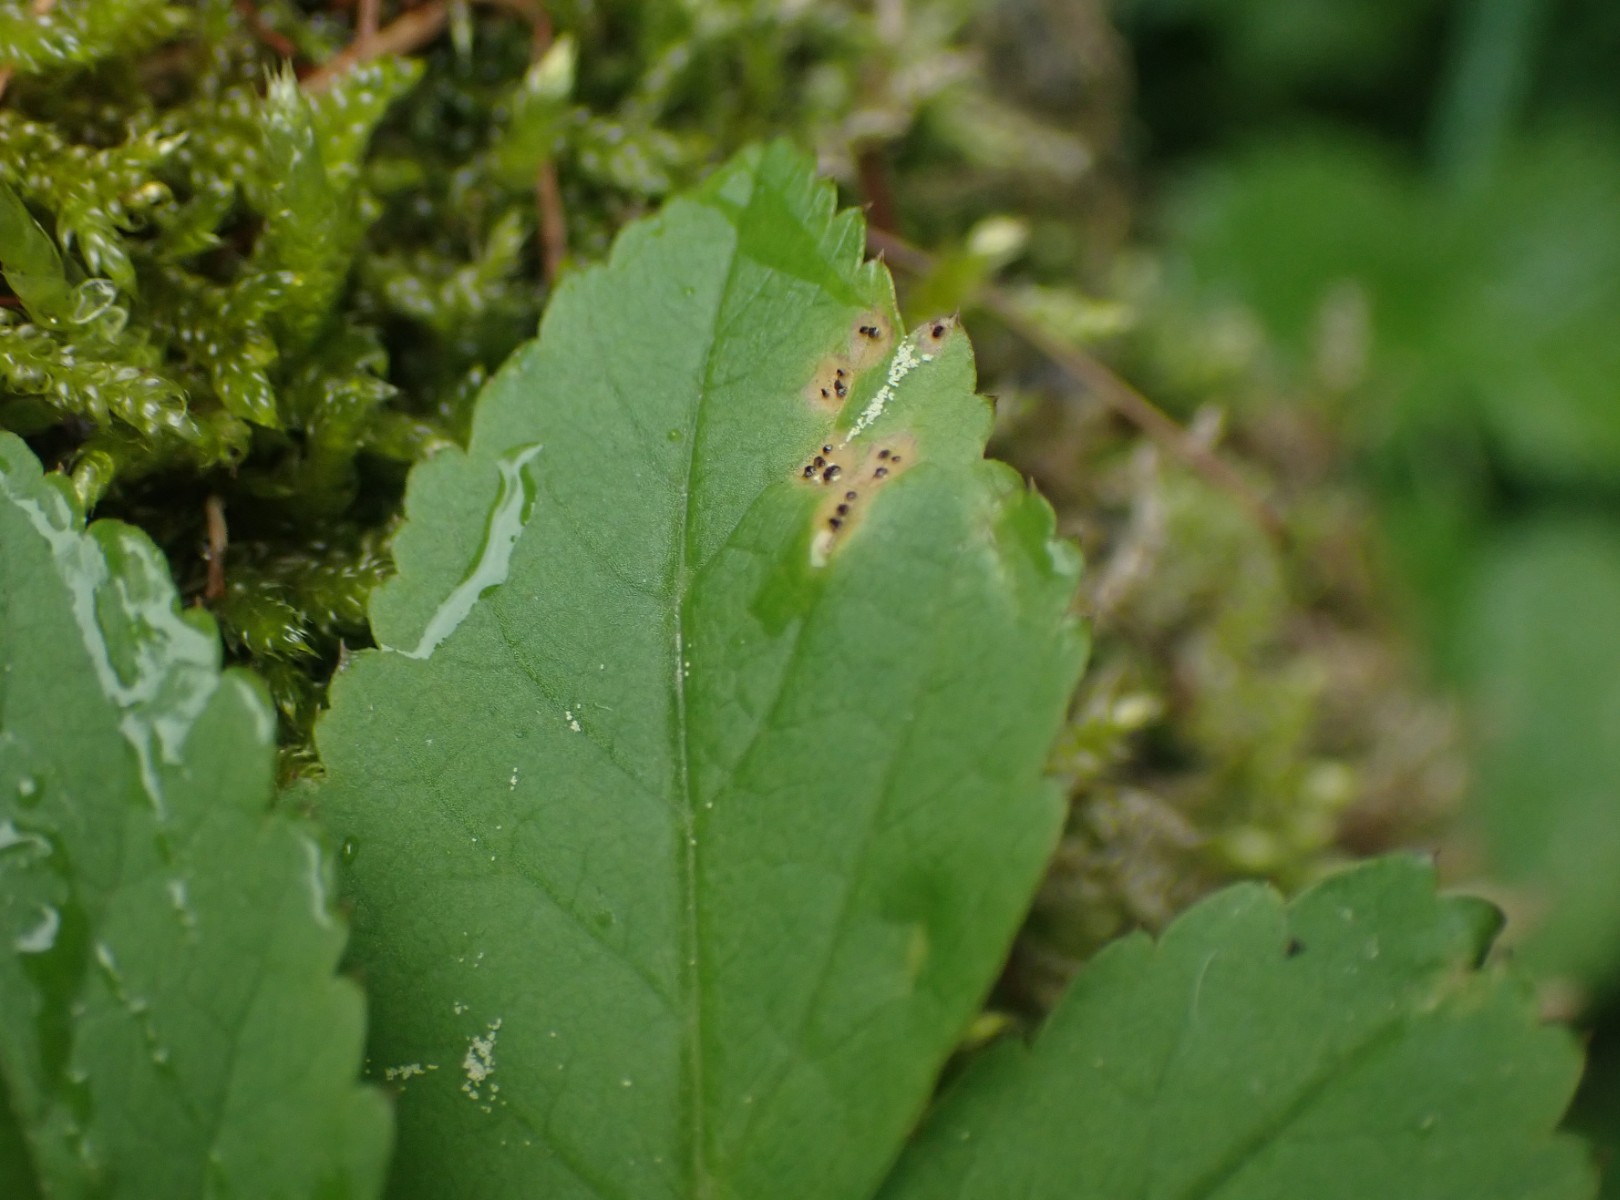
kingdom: Fungi
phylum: Basidiomycota
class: Pucciniomycetes
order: Pucciniales
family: Pucciniaceae
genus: Puccinia
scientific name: Puccinia
